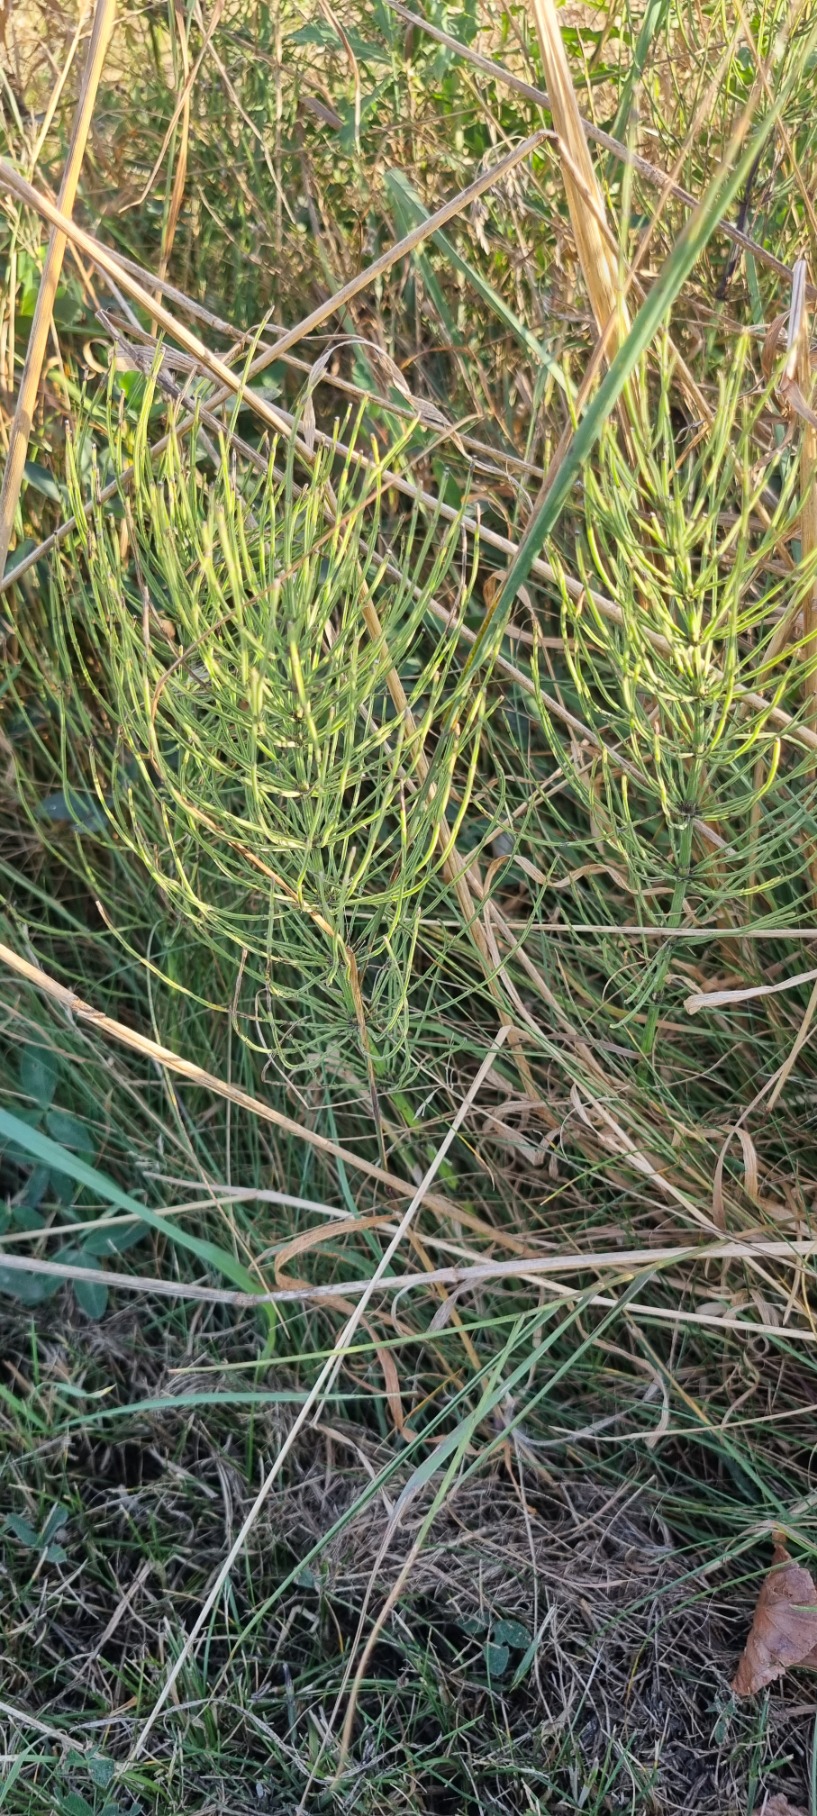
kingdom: Plantae
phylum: Tracheophyta
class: Polypodiopsida
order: Equisetales
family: Equisetaceae
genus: Equisetum
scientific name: Equisetum arvense
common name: Ager-padderok
